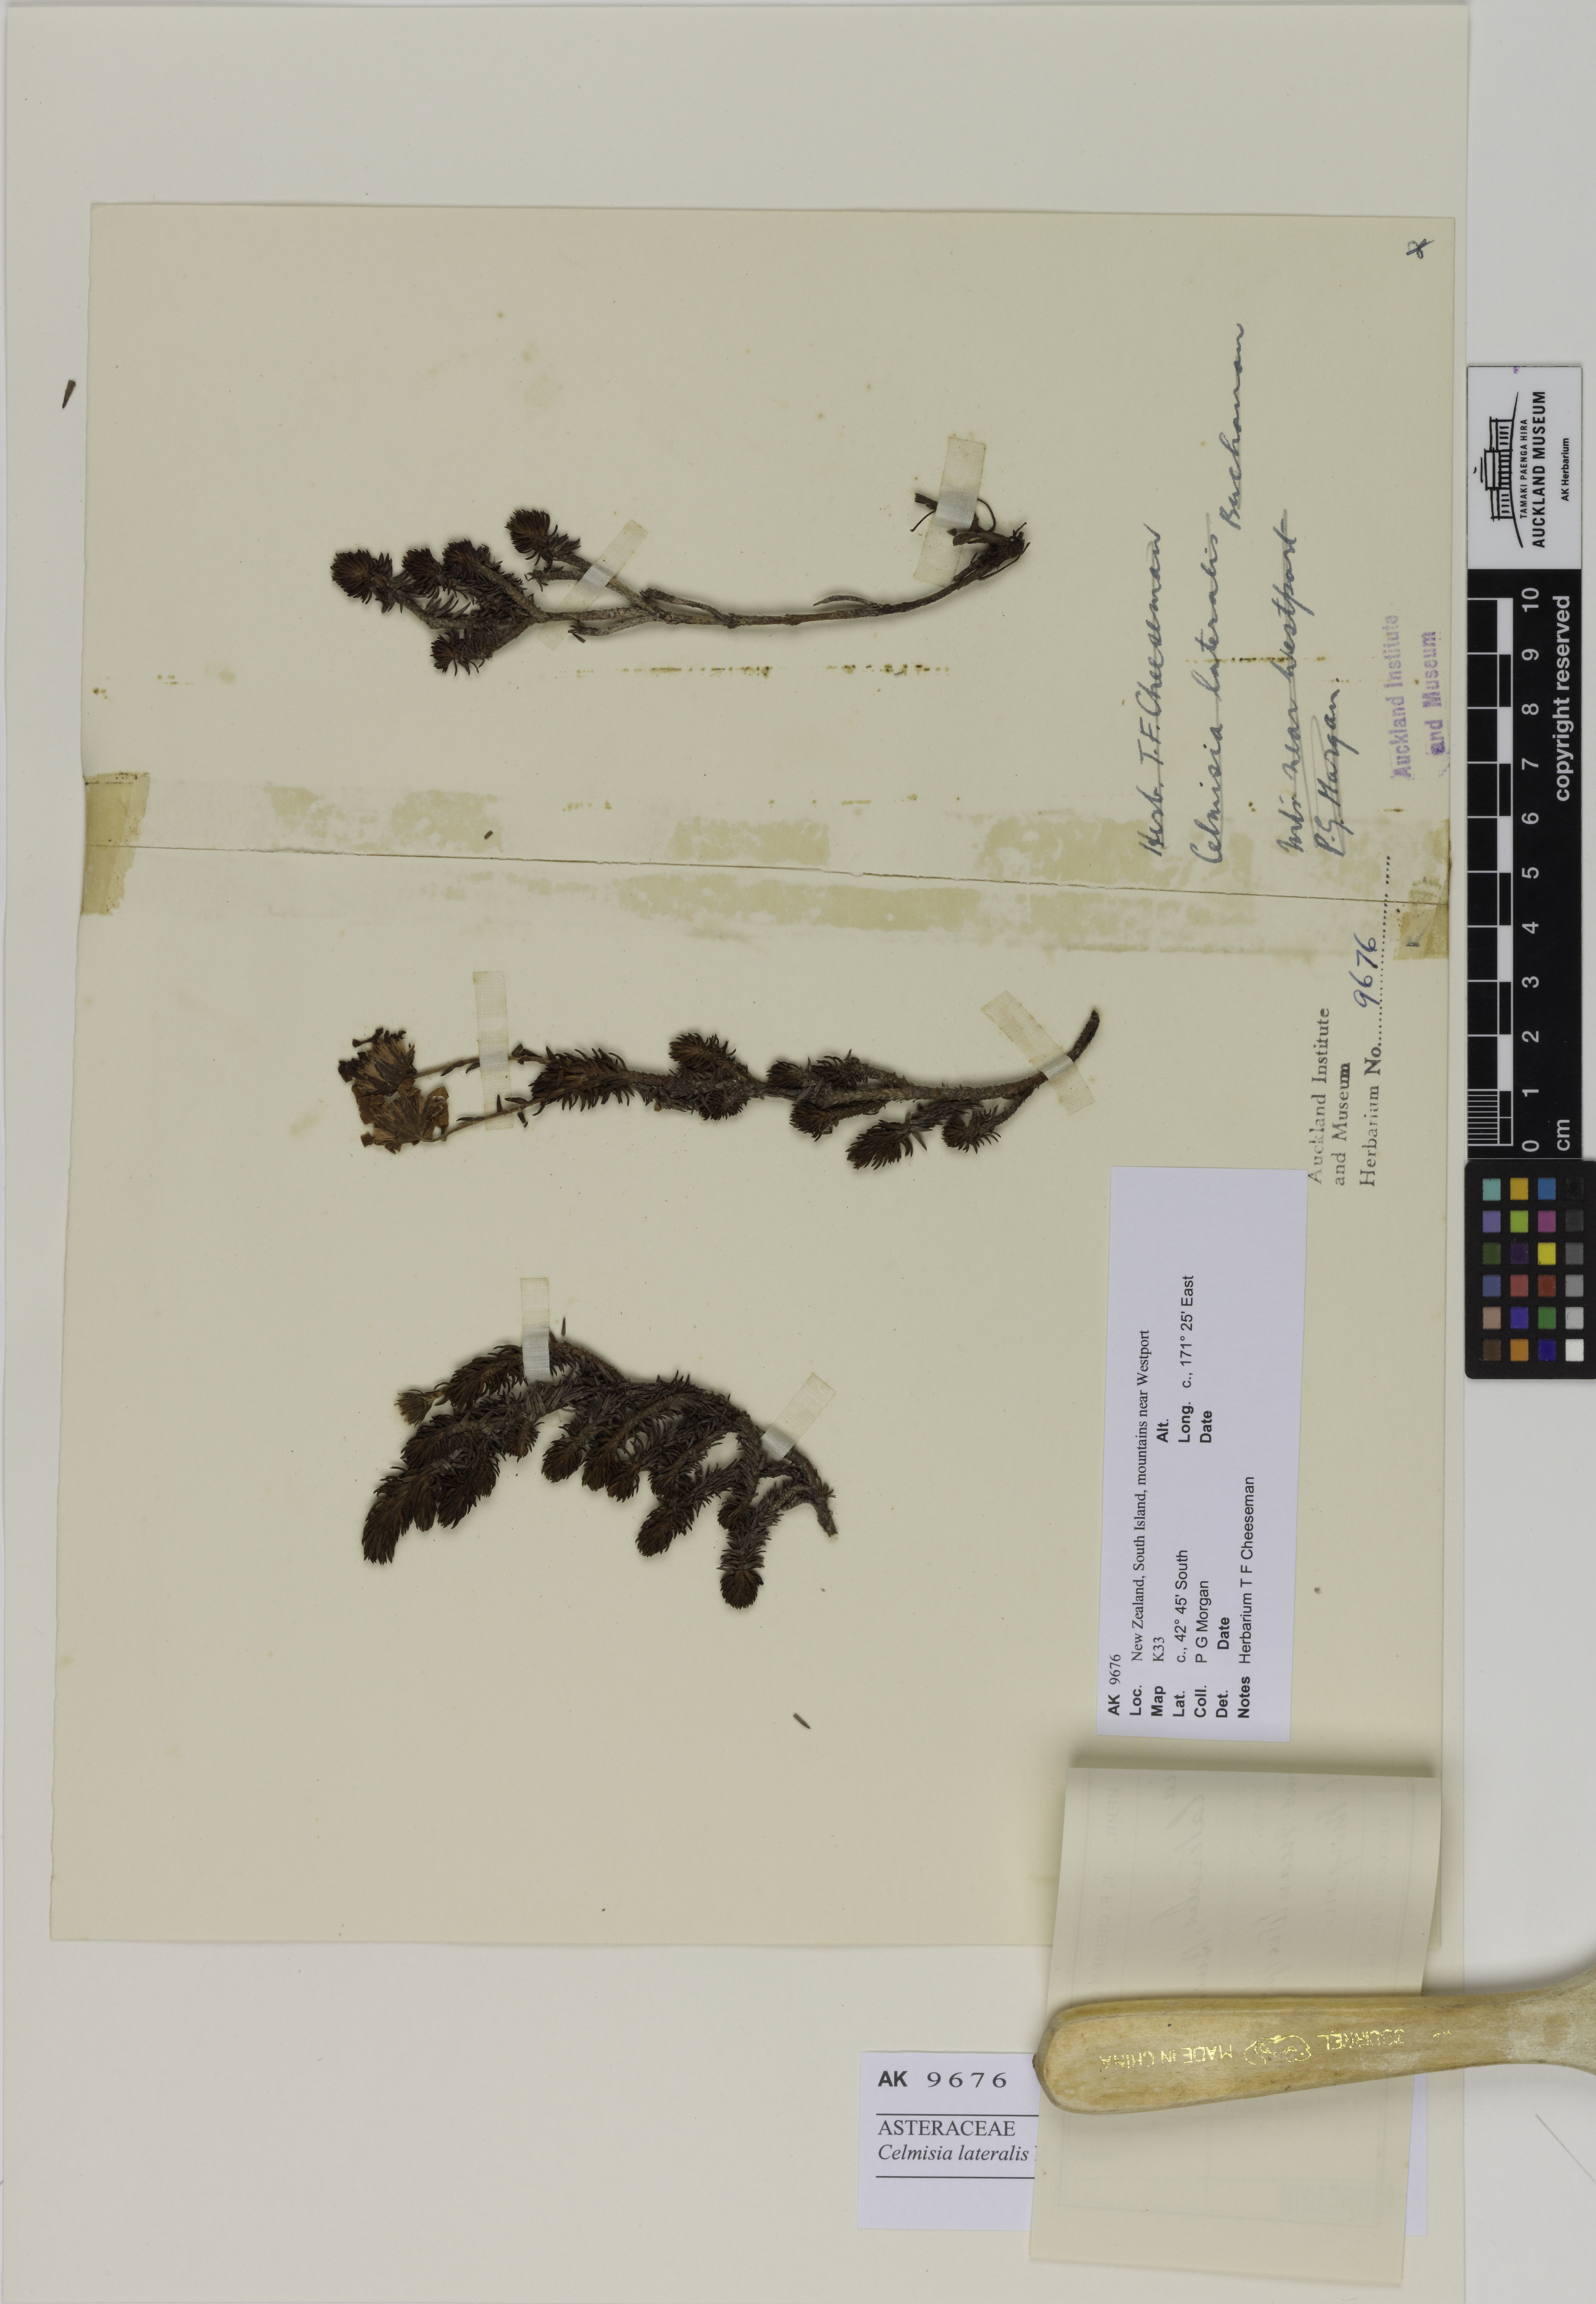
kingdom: Plantae
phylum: Tracheophyta
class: Magnoliopsida
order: Asterales
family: Asteraceae
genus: Celmisia
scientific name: Celmisia lateralis
